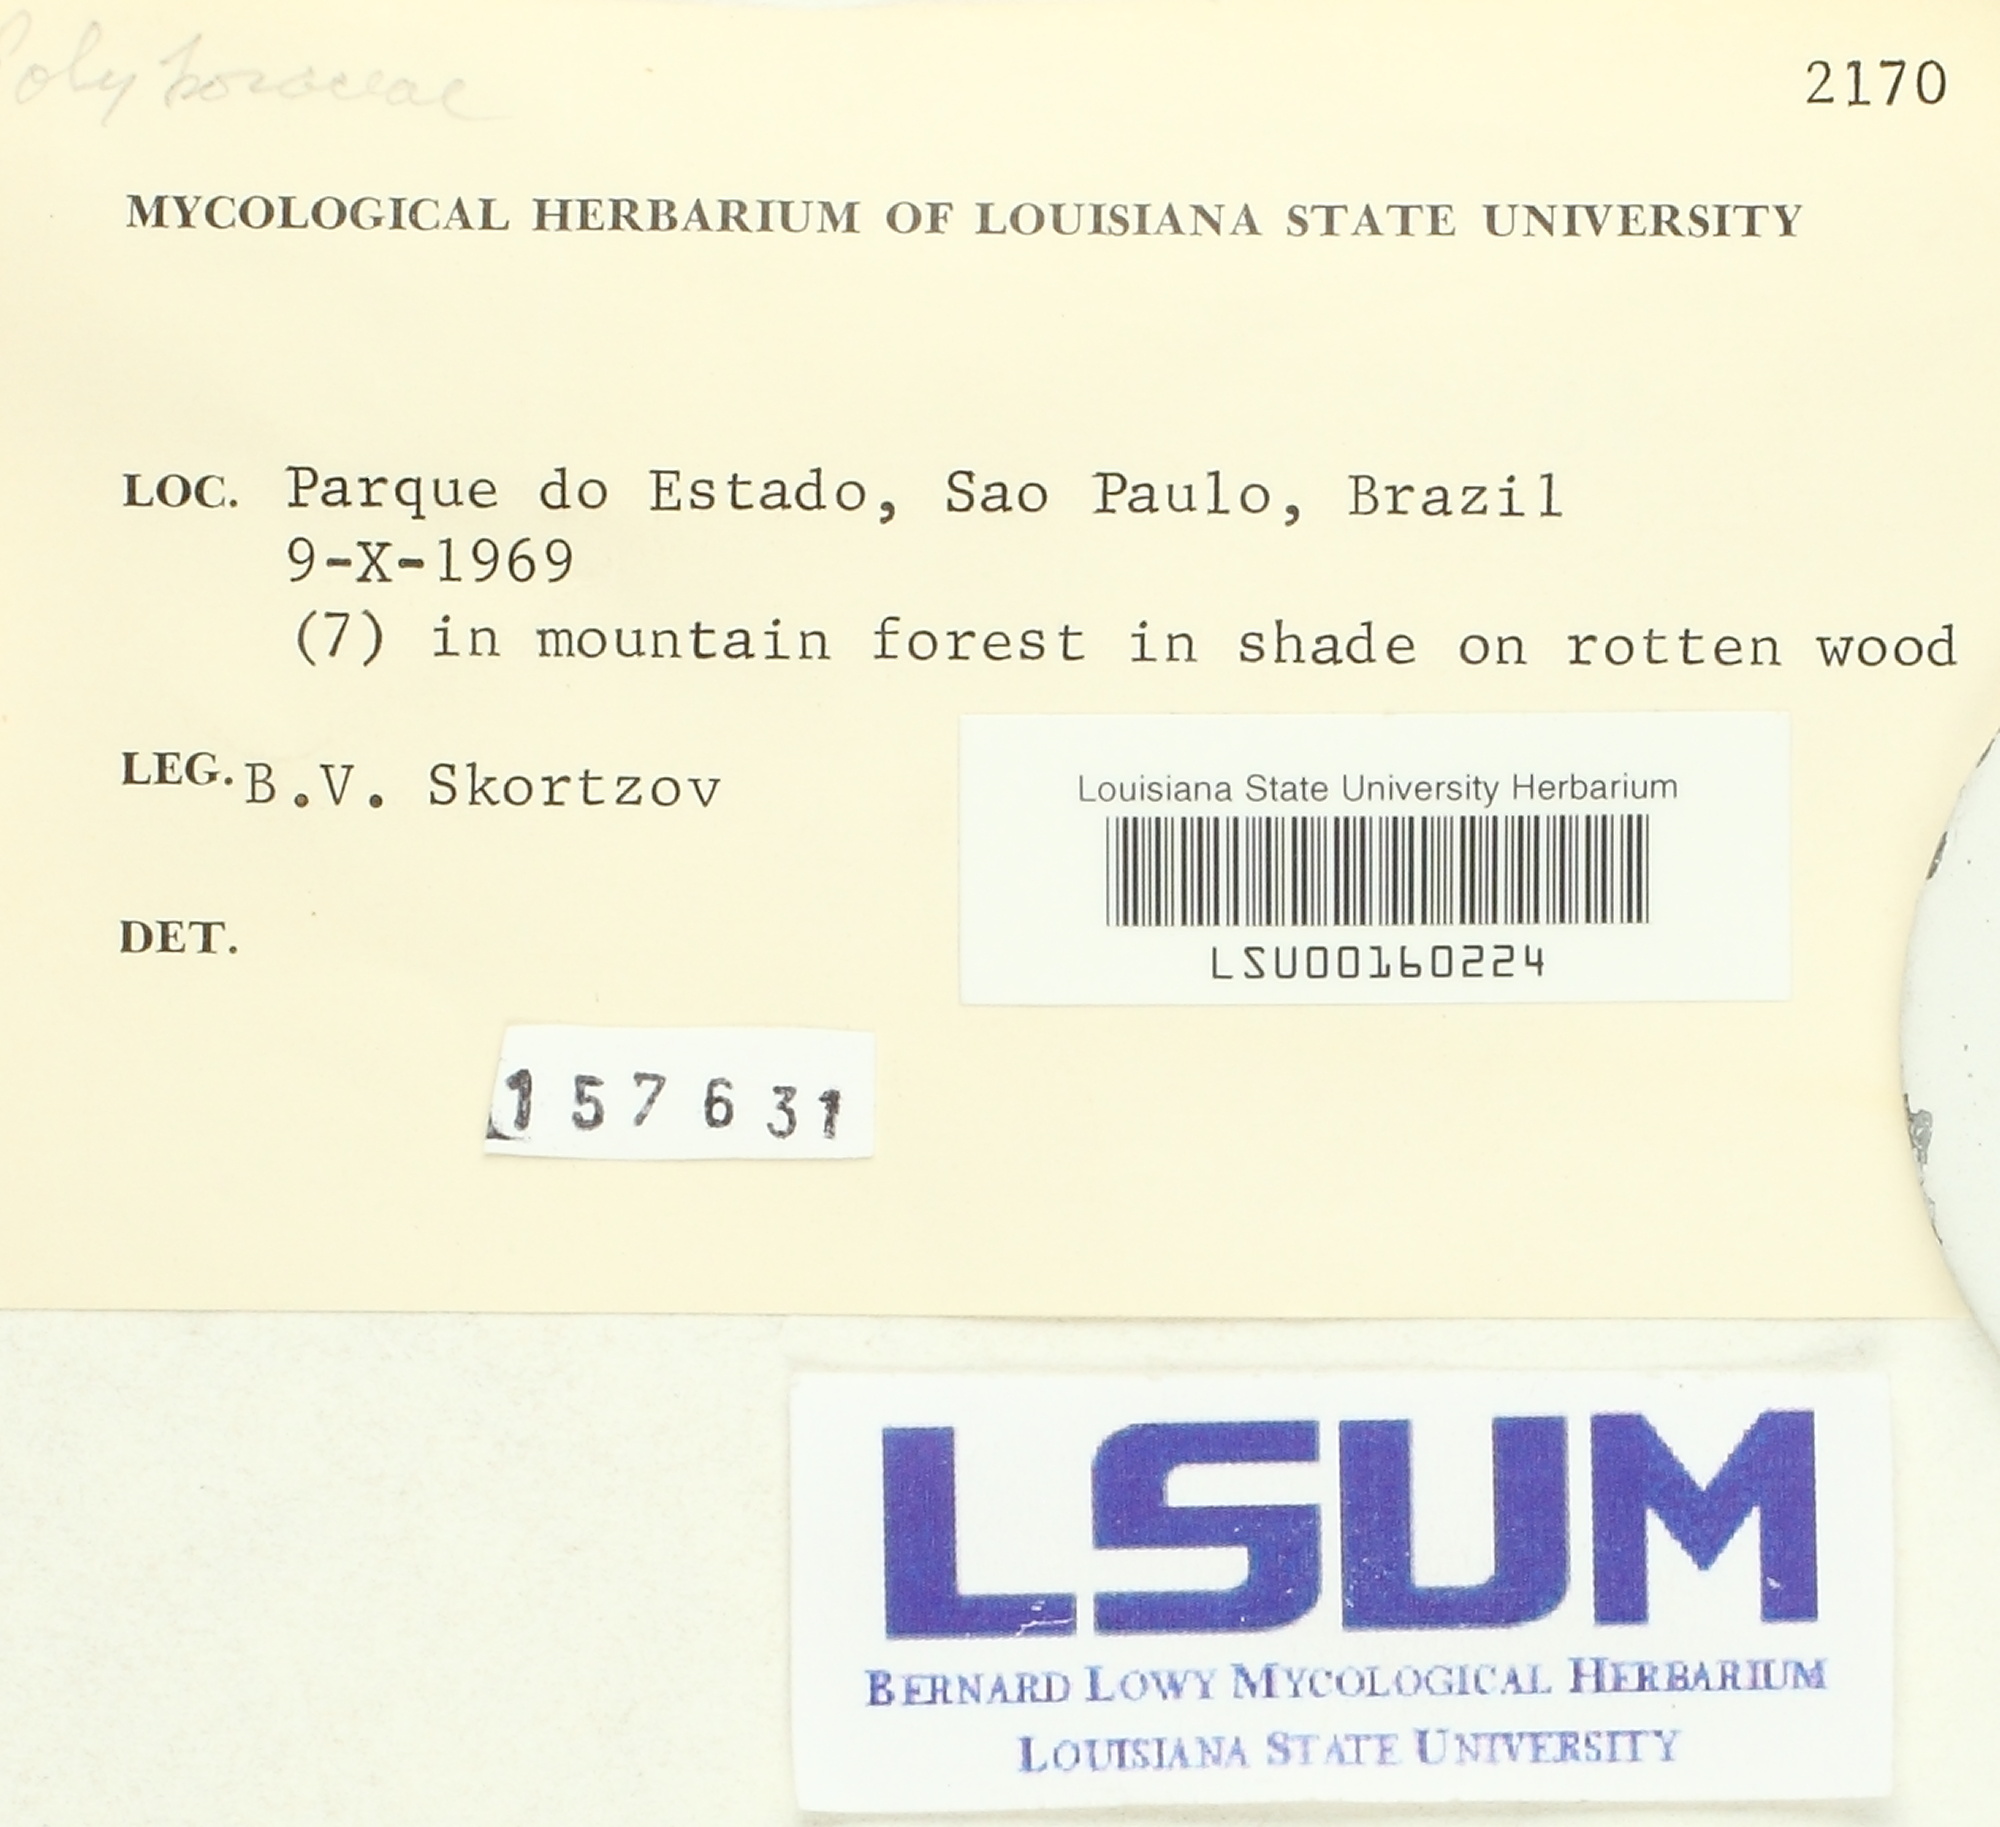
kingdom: Fungi
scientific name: Fungi
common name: Fungi
